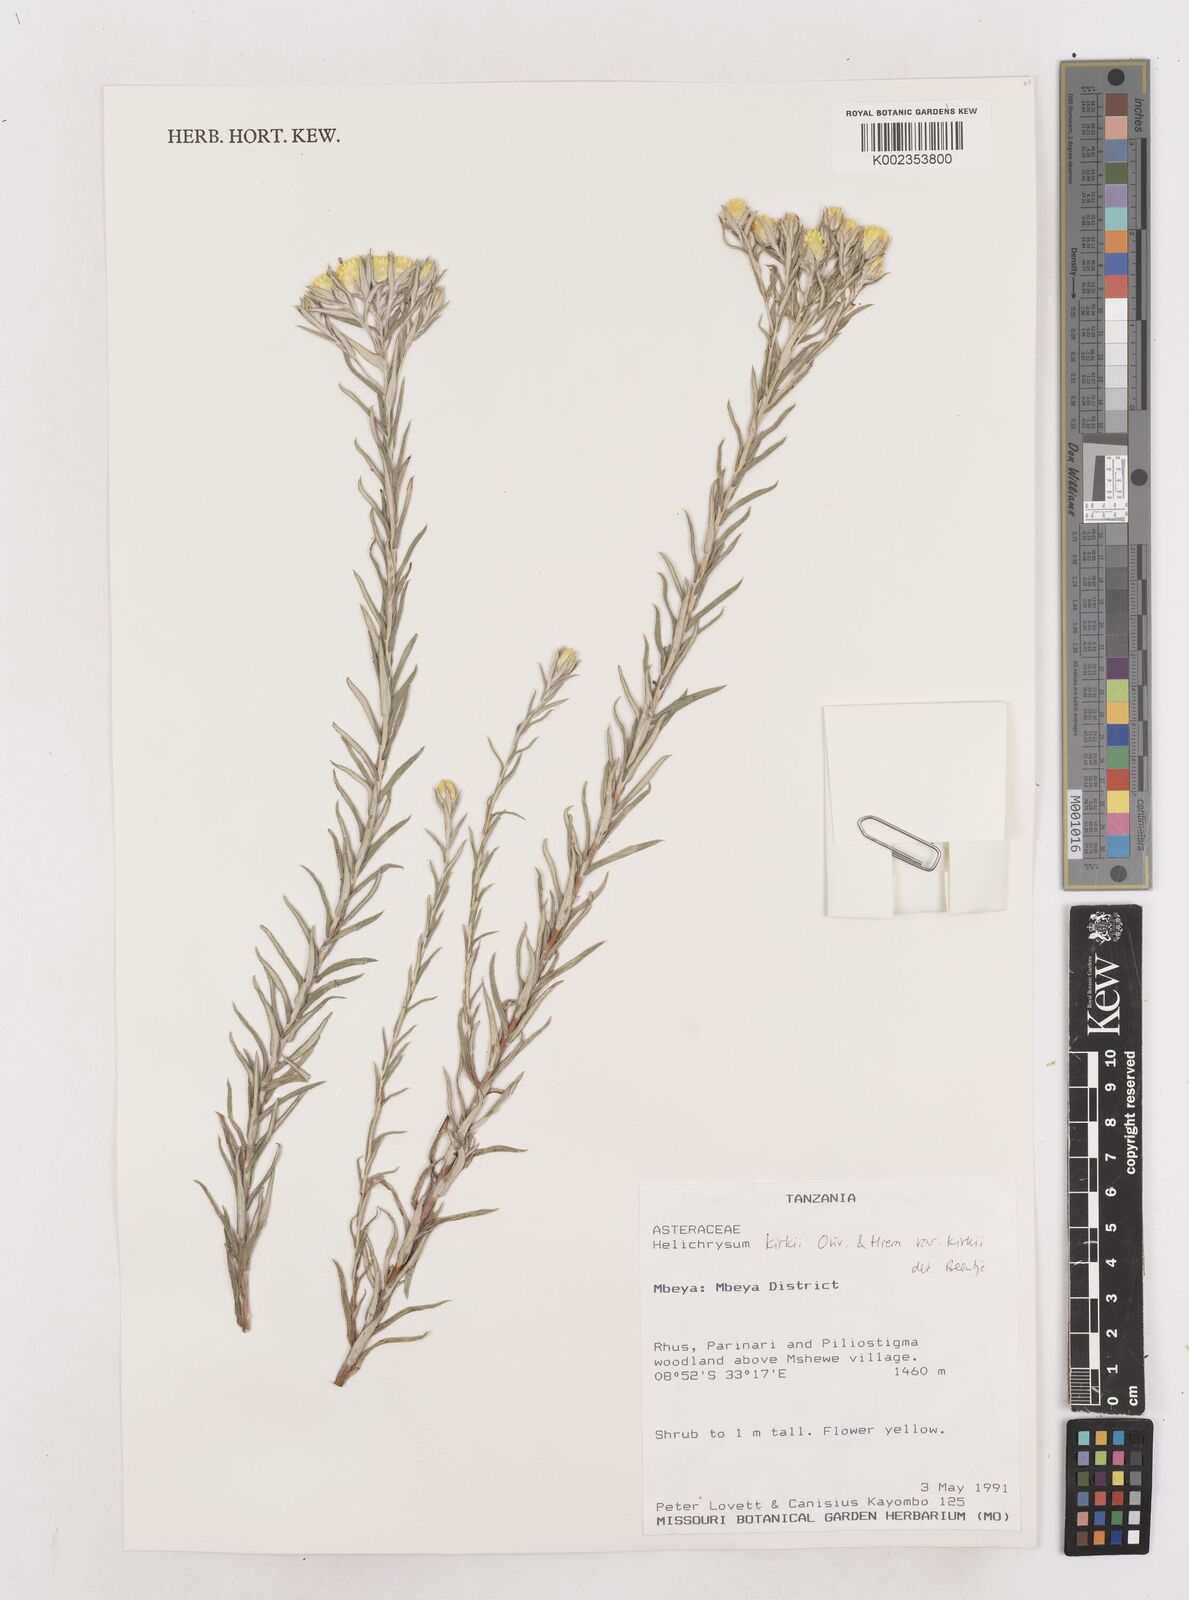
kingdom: Plantae
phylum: Tracheophyta
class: Magnoliopsida
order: Asterales
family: Asteraceae
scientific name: Asteraceae
